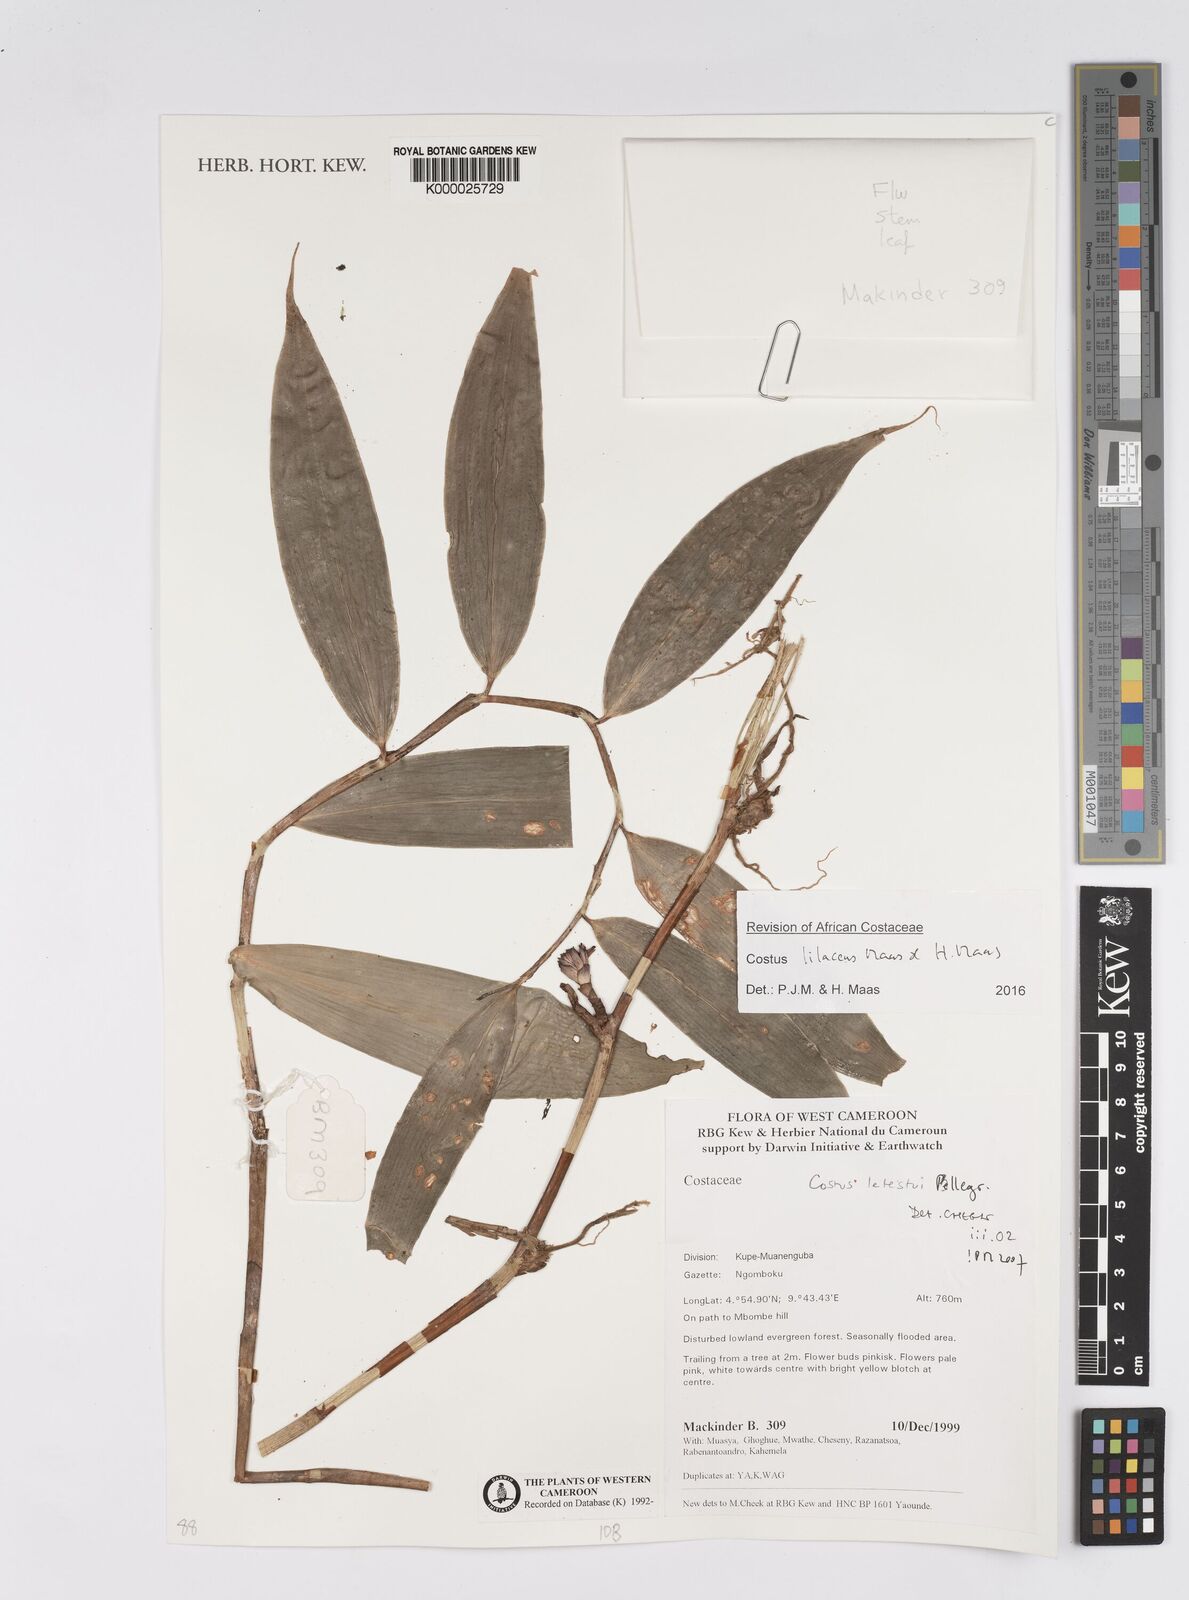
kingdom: Plantae
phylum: Tracheophyta
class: Liliopsida
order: Zingiberales
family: Costaceae
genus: Costus
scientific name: Costus lilaceus
